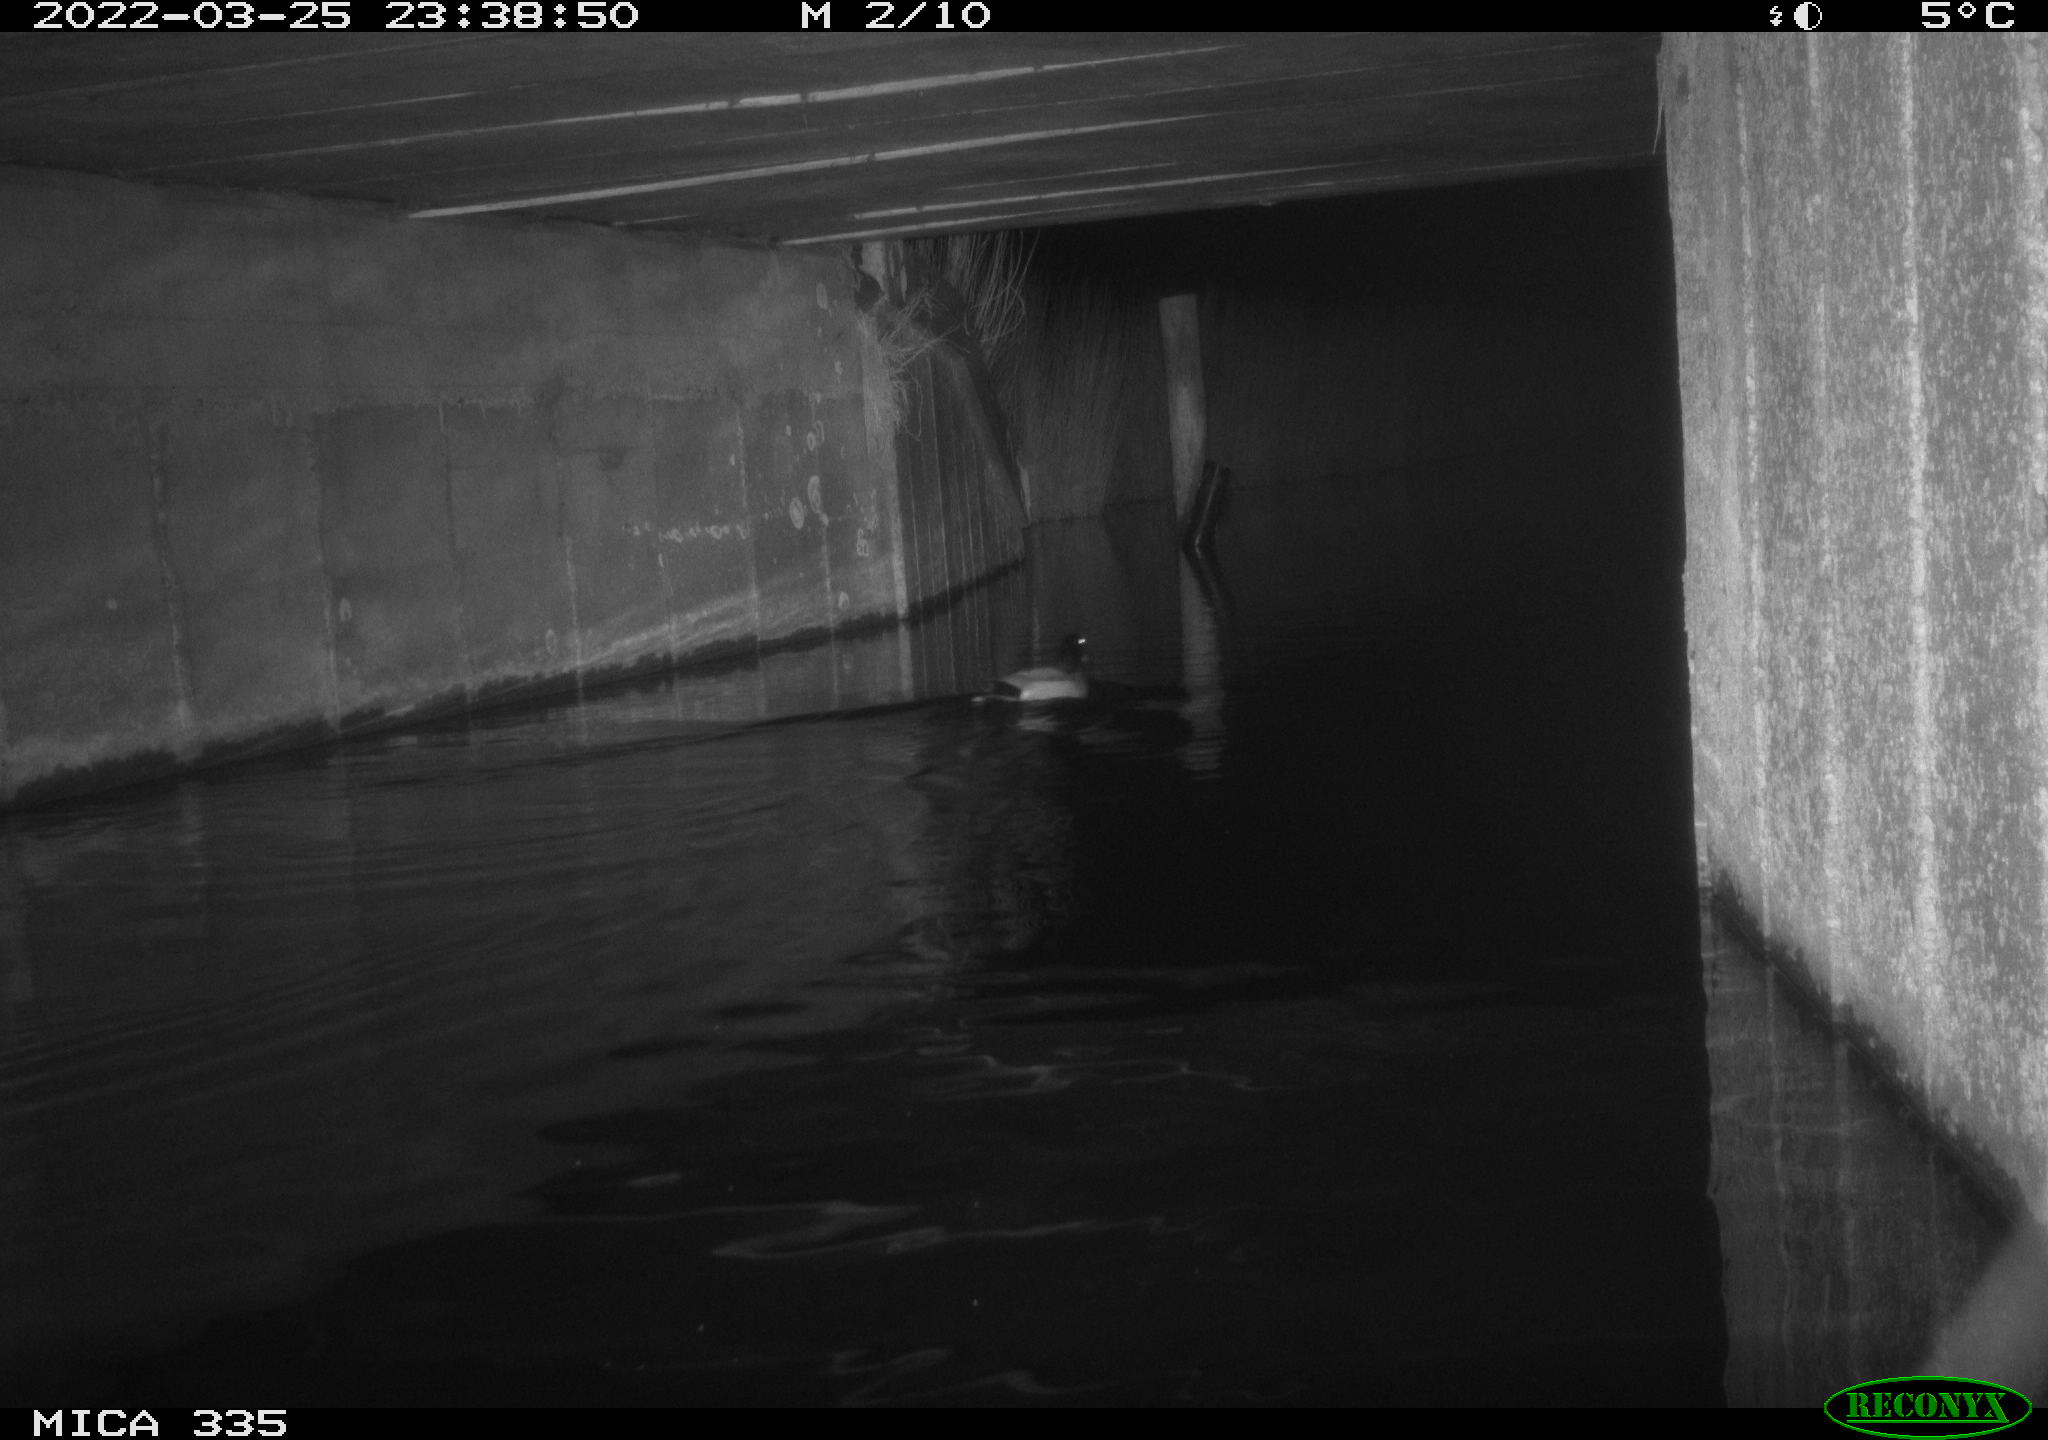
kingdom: Animalia
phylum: Chordata
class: Aves
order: Anseriformes
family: Anatidae
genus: Anas
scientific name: Anas platyrhynchos
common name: Mallard
